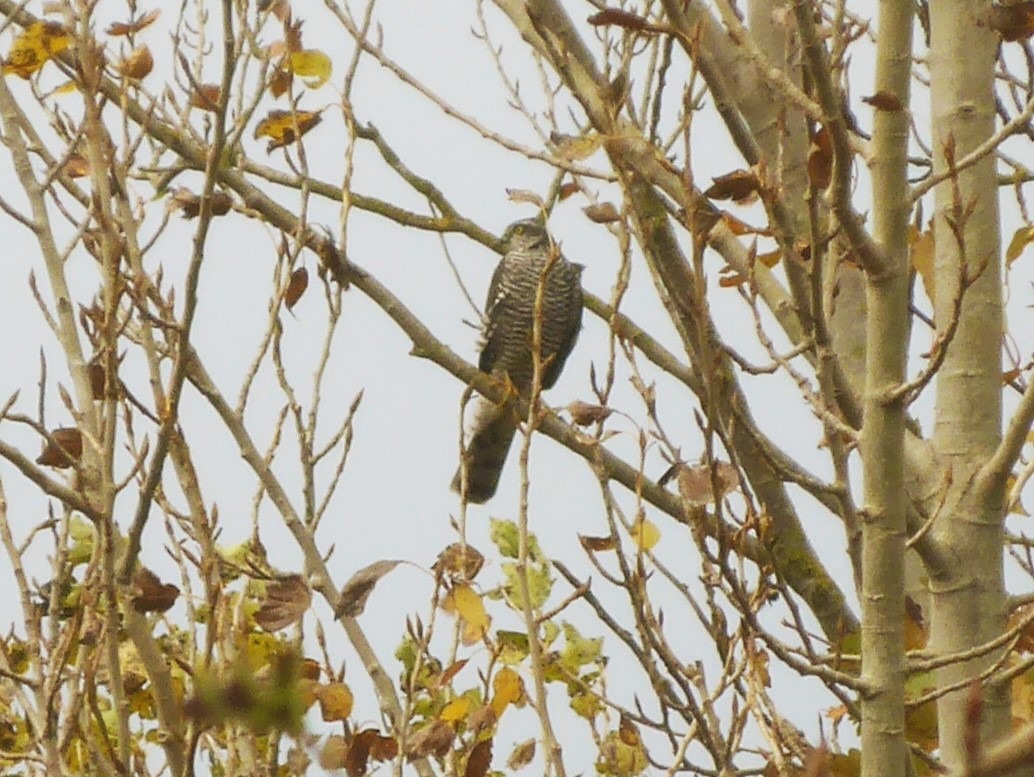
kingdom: Animalia
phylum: Chordata
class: Aves
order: Accipitriformes
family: Accipitridae
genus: Accipiter
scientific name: Accipiter nisus
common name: Spurvehøg
